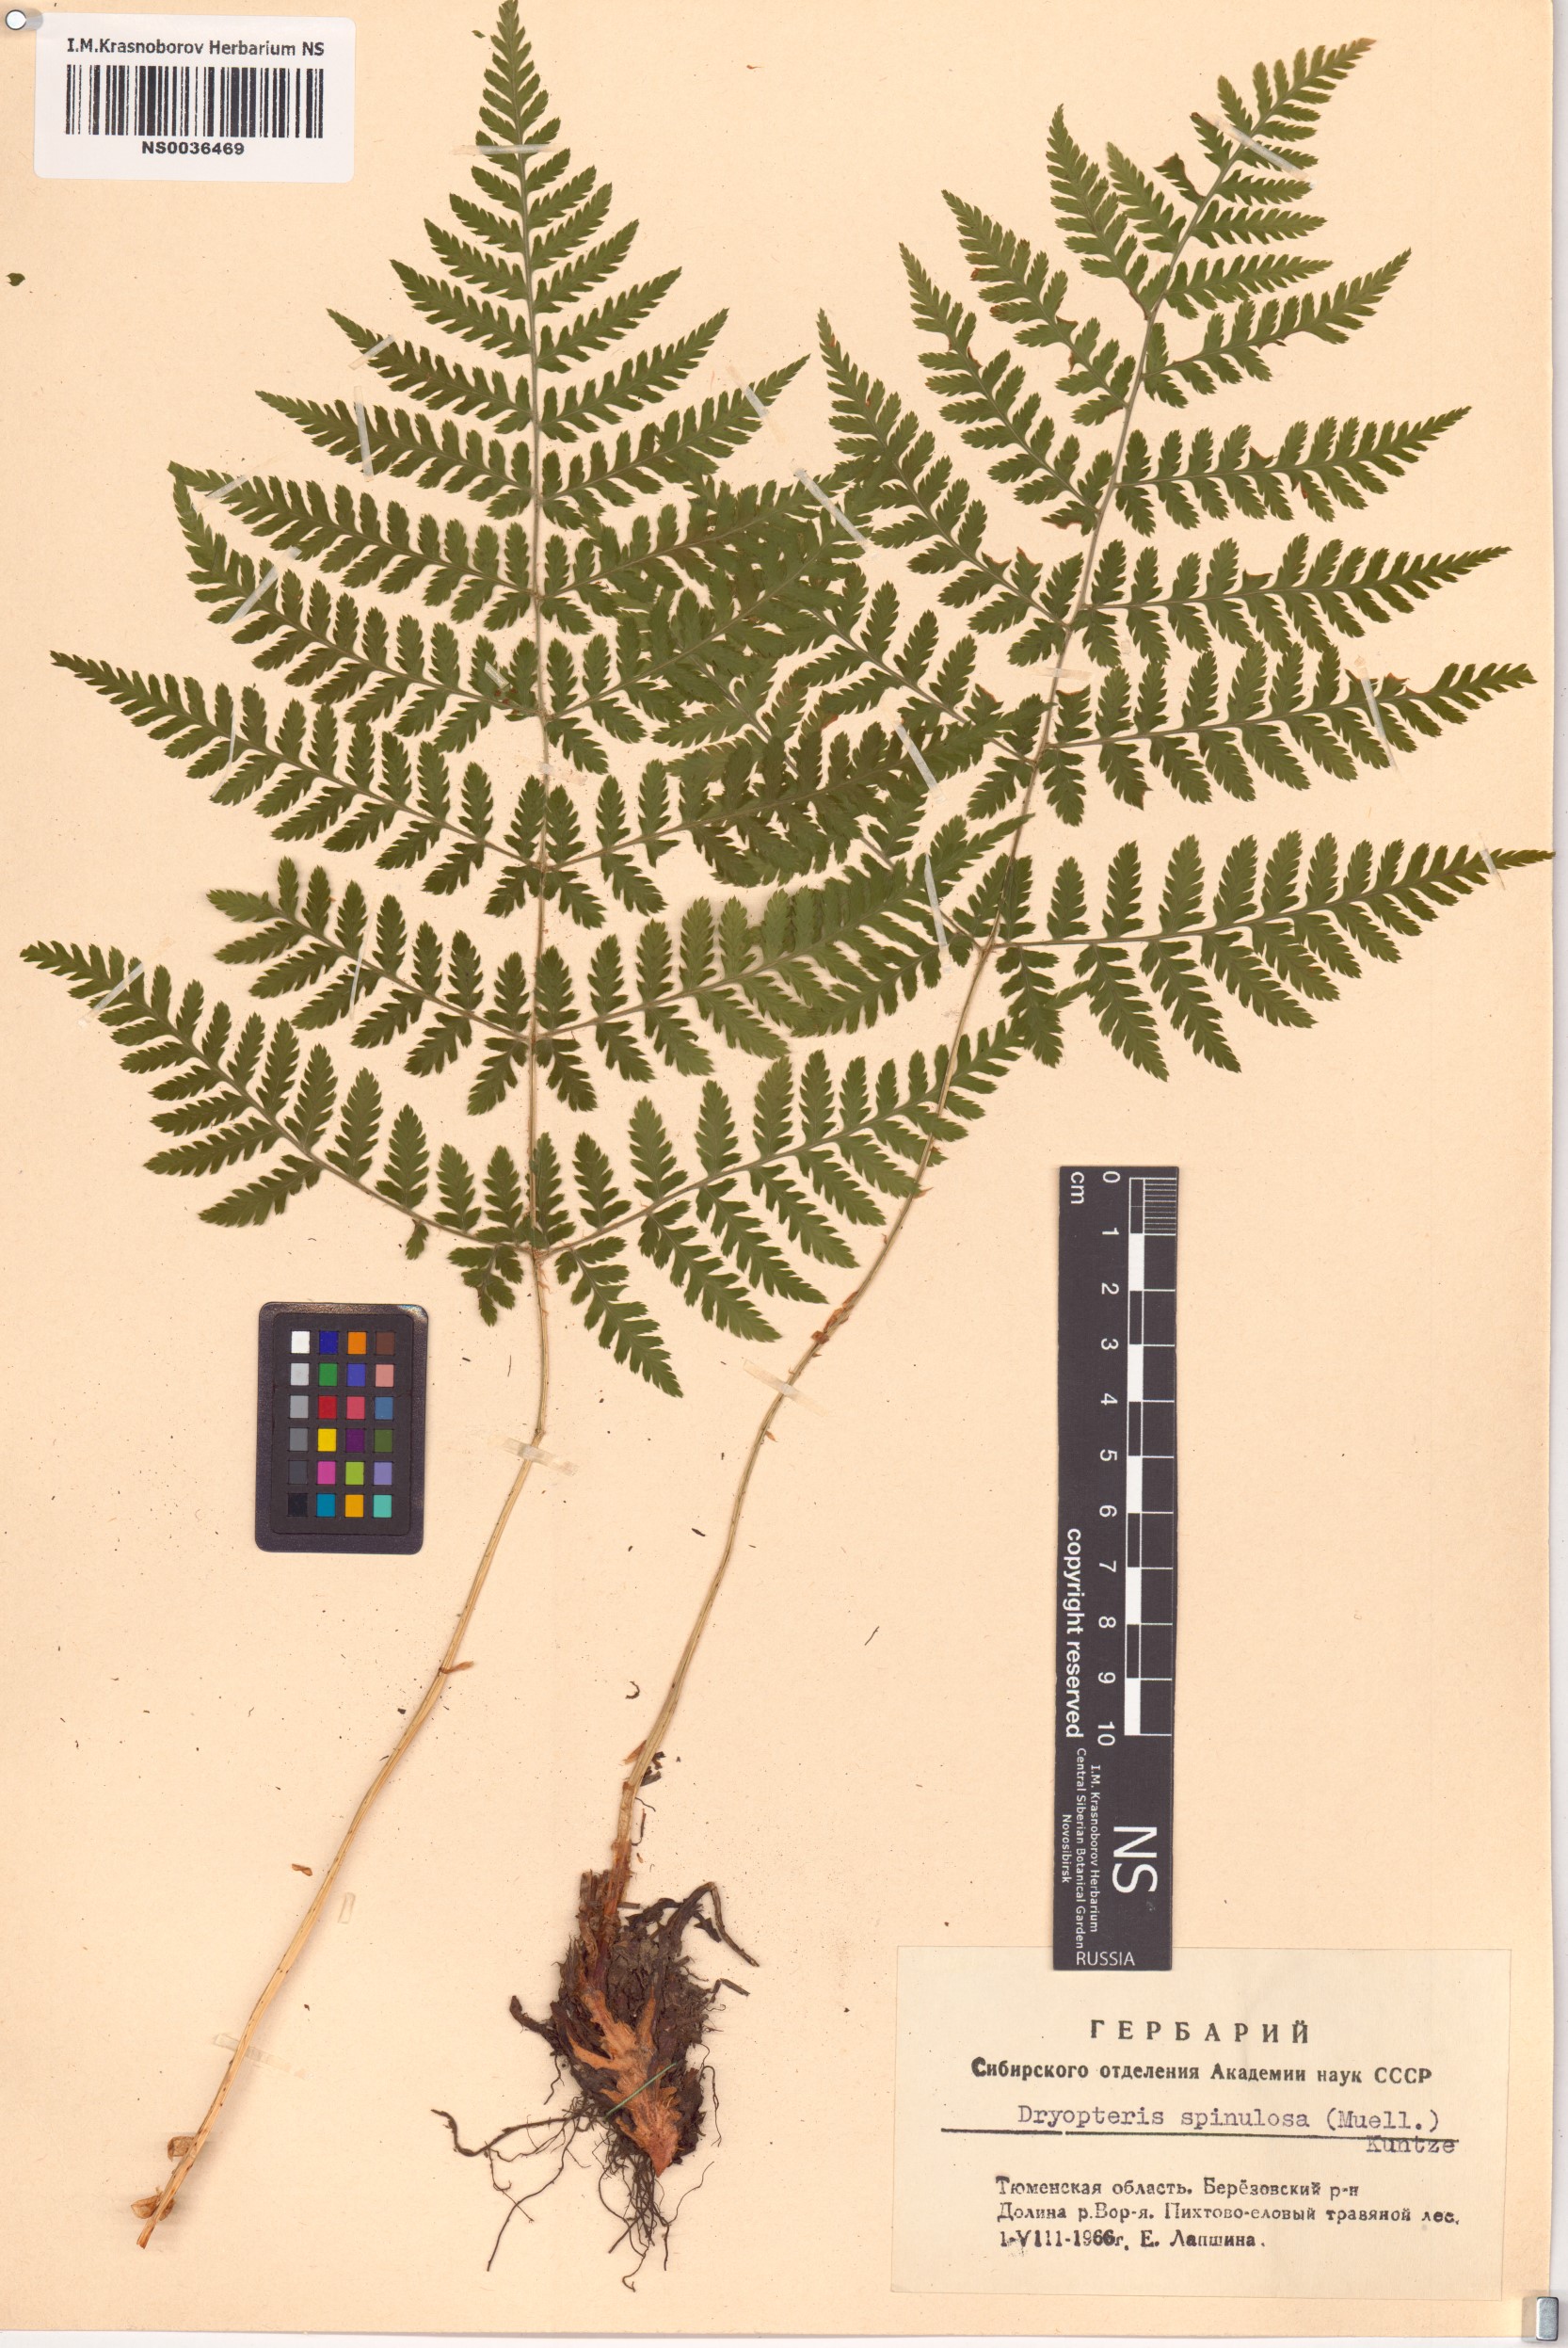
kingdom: Plantae
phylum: Tracheophyta
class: Polypodiopsida
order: Polypodiales
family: Dryopteridaceae
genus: Dryopteris
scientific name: Dryopteris carthusiana
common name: Narrow buckler-fern
